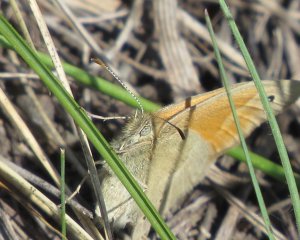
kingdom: Animalia
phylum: Arthropoda
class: Insecta
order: Lepidoptera
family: Nymphalidae
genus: Coenonympha
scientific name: Coenonympha tullia
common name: Large Heath
